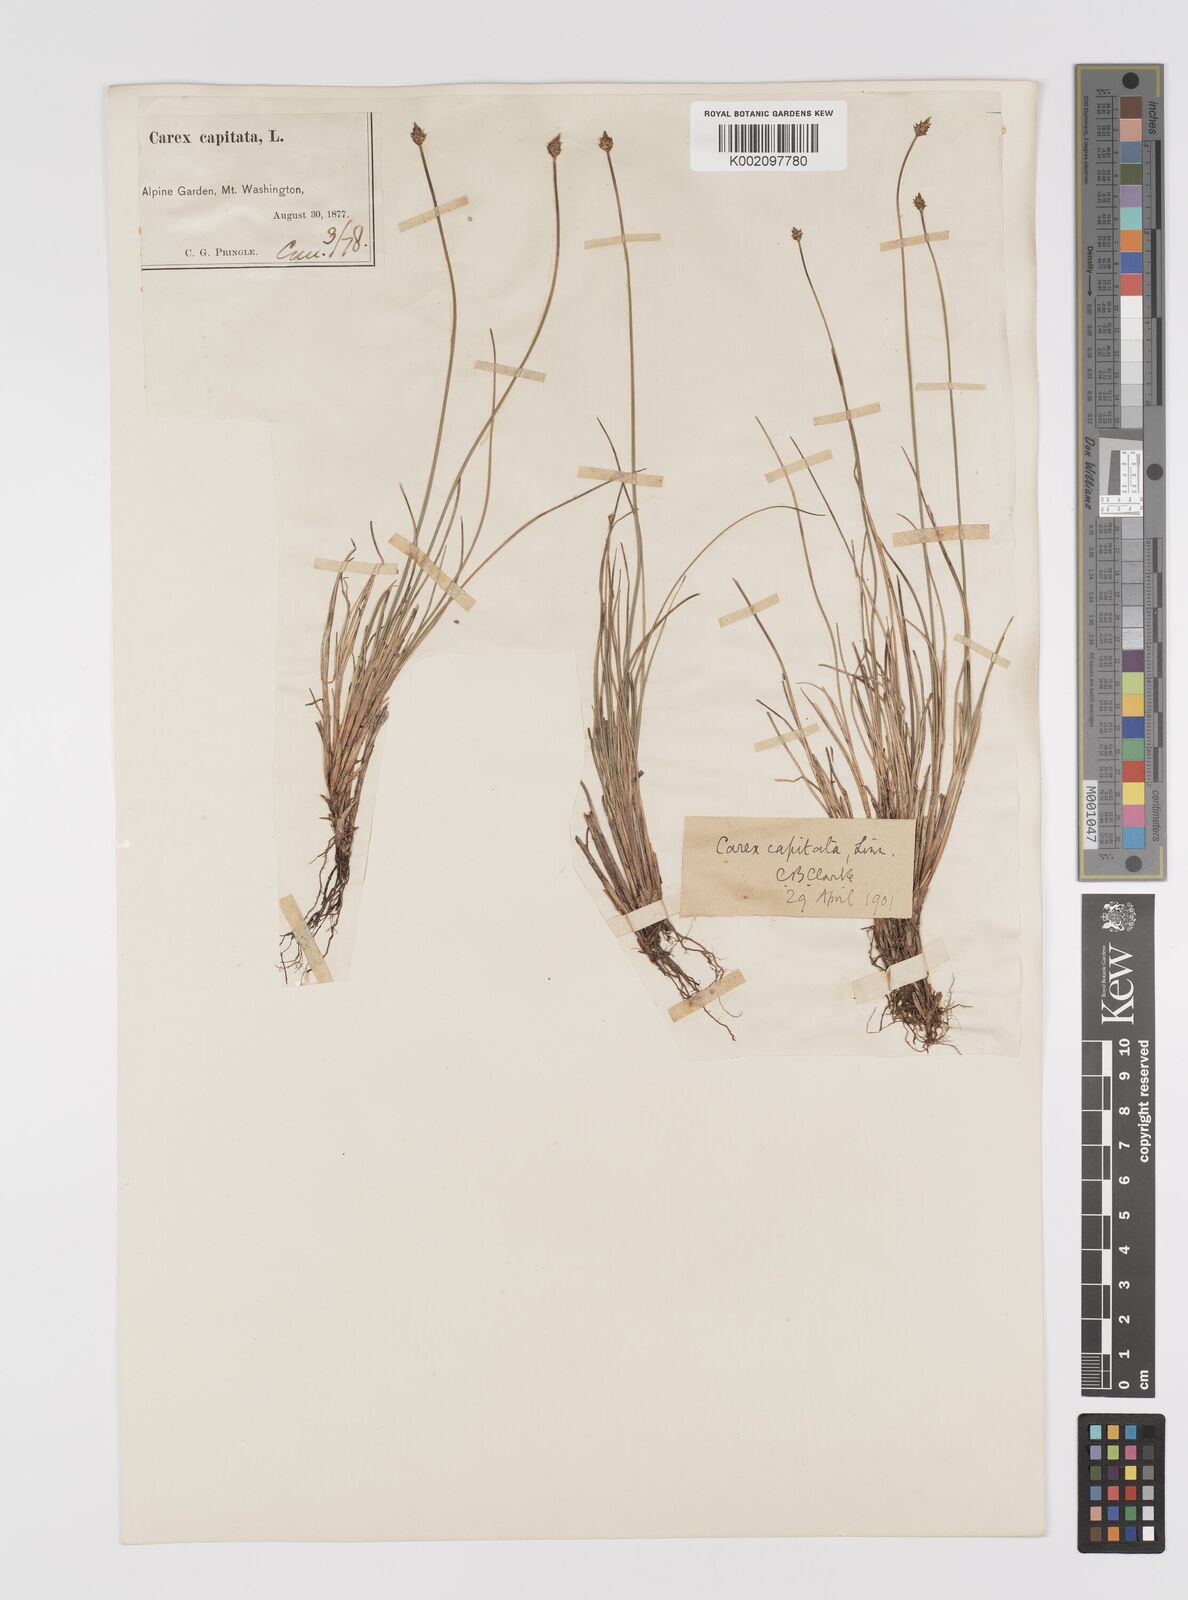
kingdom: Plantae
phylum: Tracheophyta
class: Liliopsida
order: Poales
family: Cyperaceae
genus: Carex
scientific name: Carex capitata
